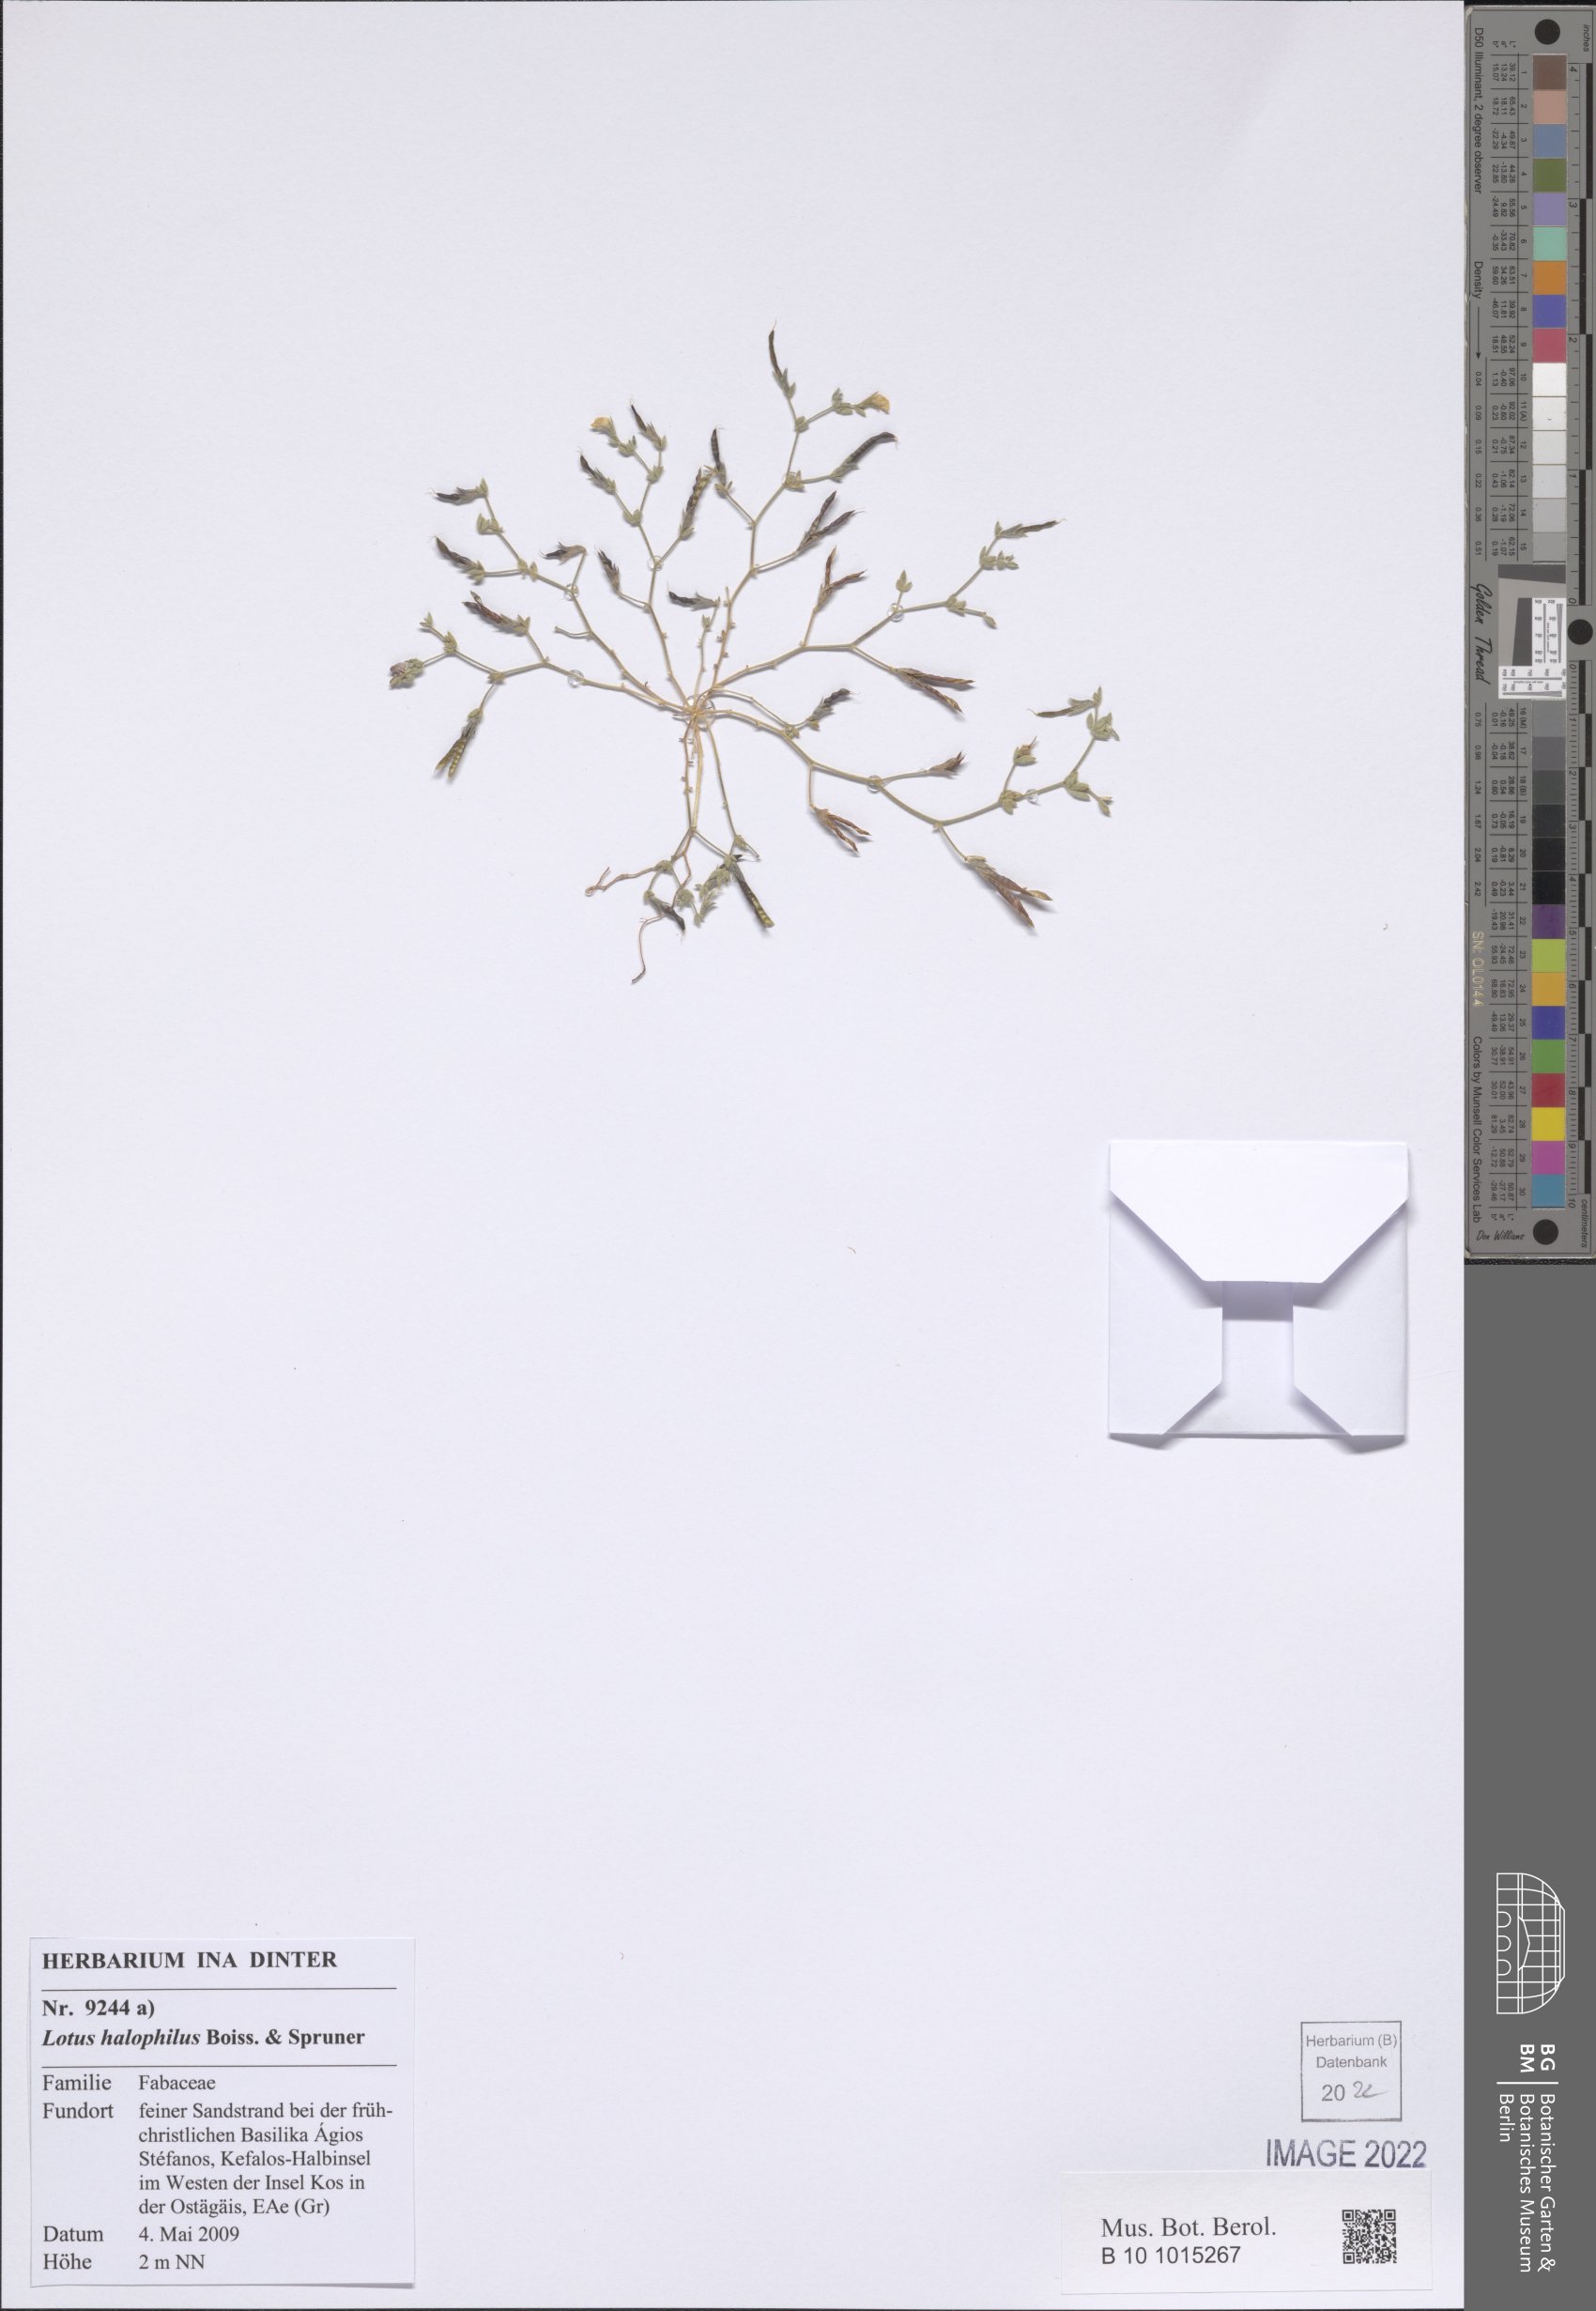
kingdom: Plantae
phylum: Tracheophyta
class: Magnoliopsida
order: Fabales
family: Fabaceae
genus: Lotus
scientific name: Lotus halophilus
